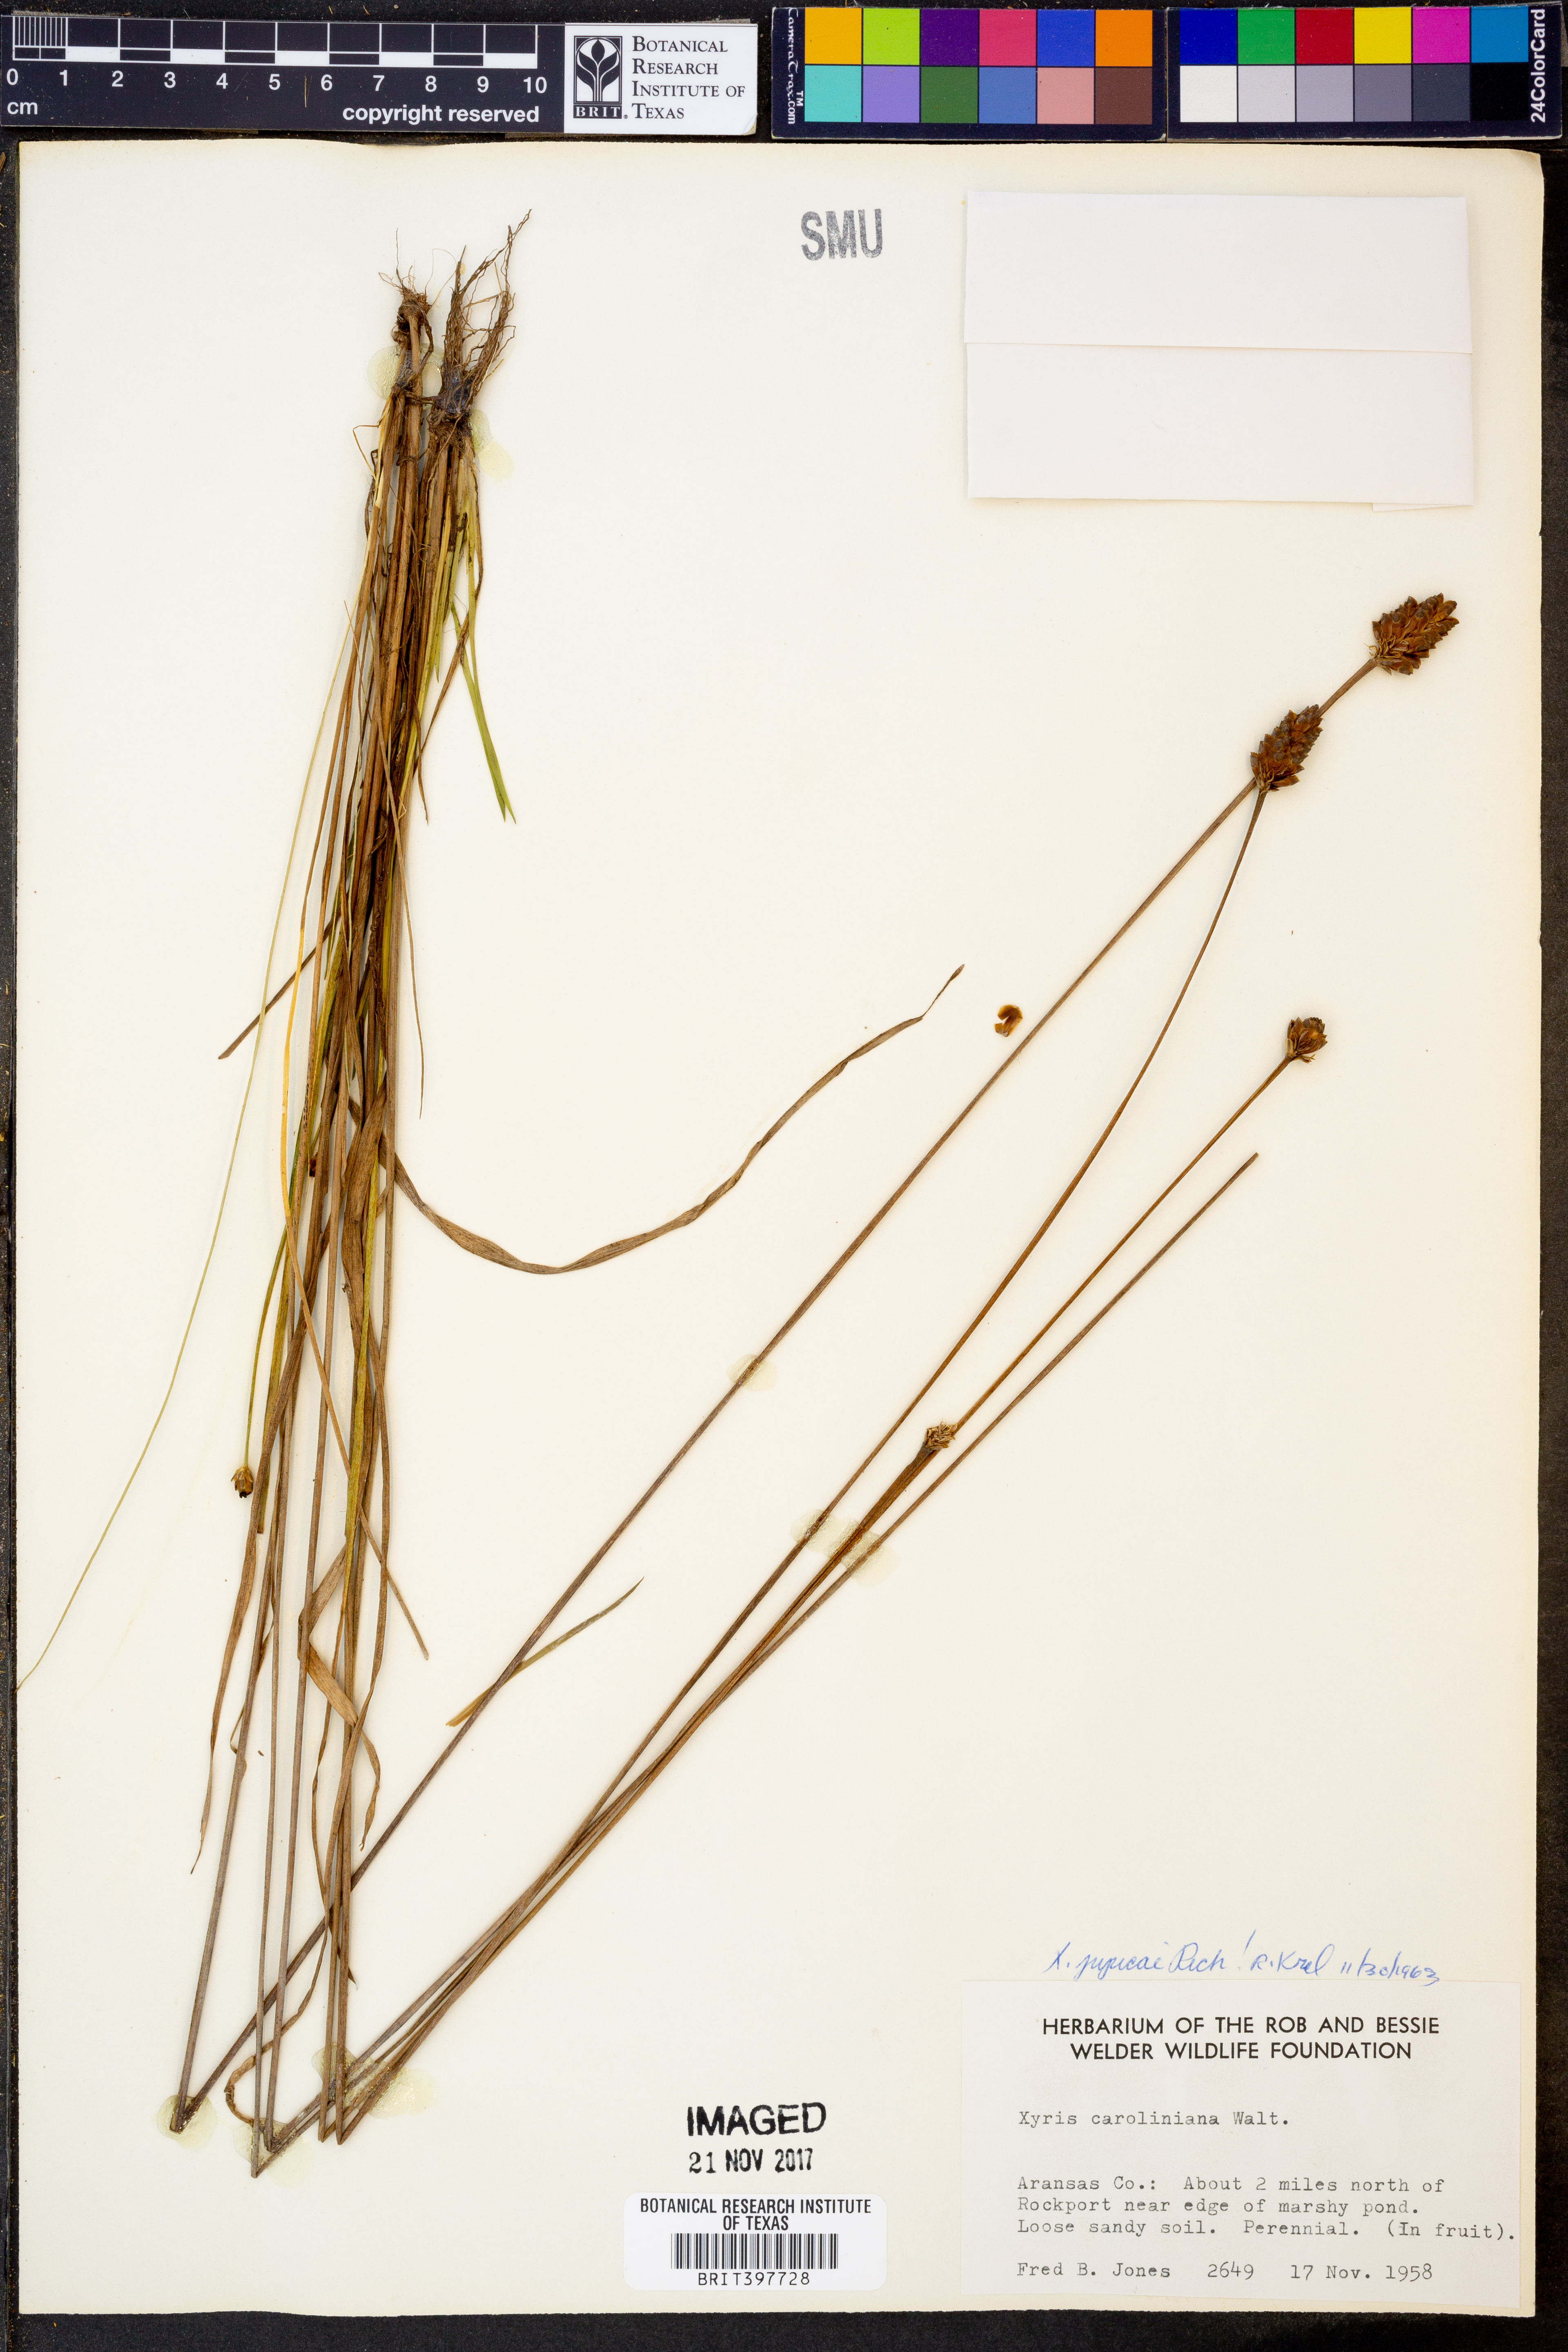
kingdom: Plantae
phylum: Tracheophyta
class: Liliopsida
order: Poales
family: Xyridaceae
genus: Xyris
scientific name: Xyris jupicai
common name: Richard's yelloweyed grass
